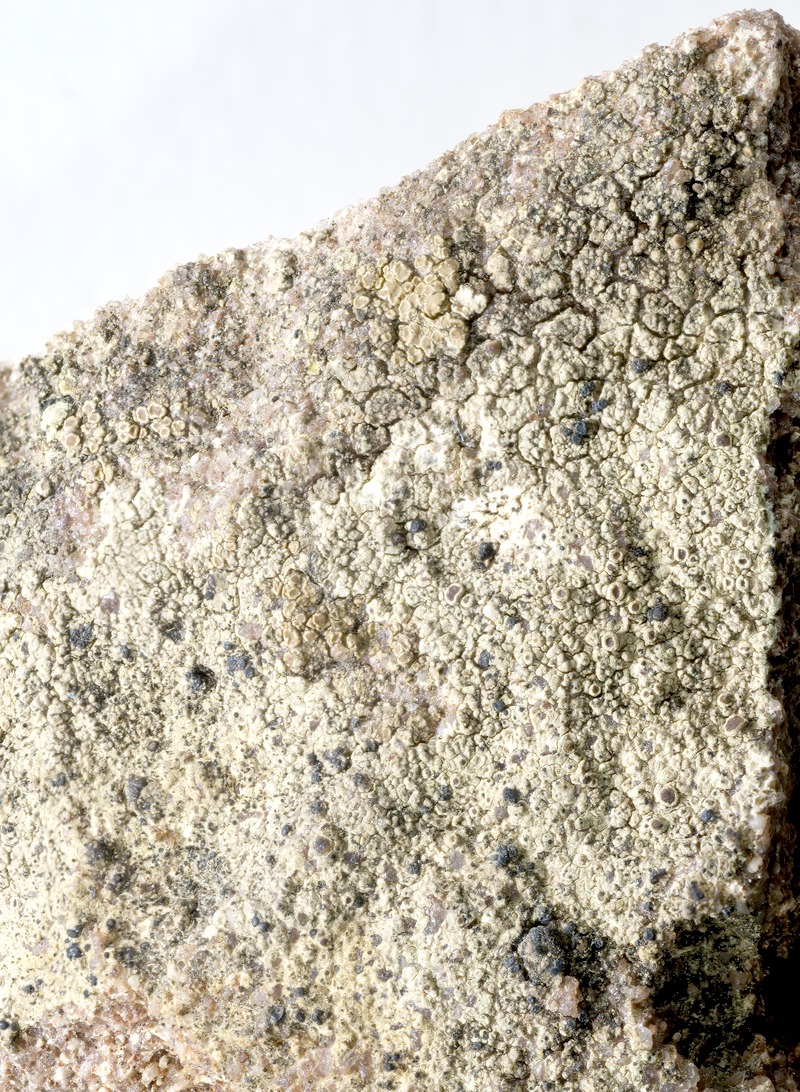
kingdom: Fungi
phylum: Ascomycota
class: Lecanoromycetes
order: Lecanorales
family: Ramalinaceae
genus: Toninia
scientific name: Toninia subfuscae
